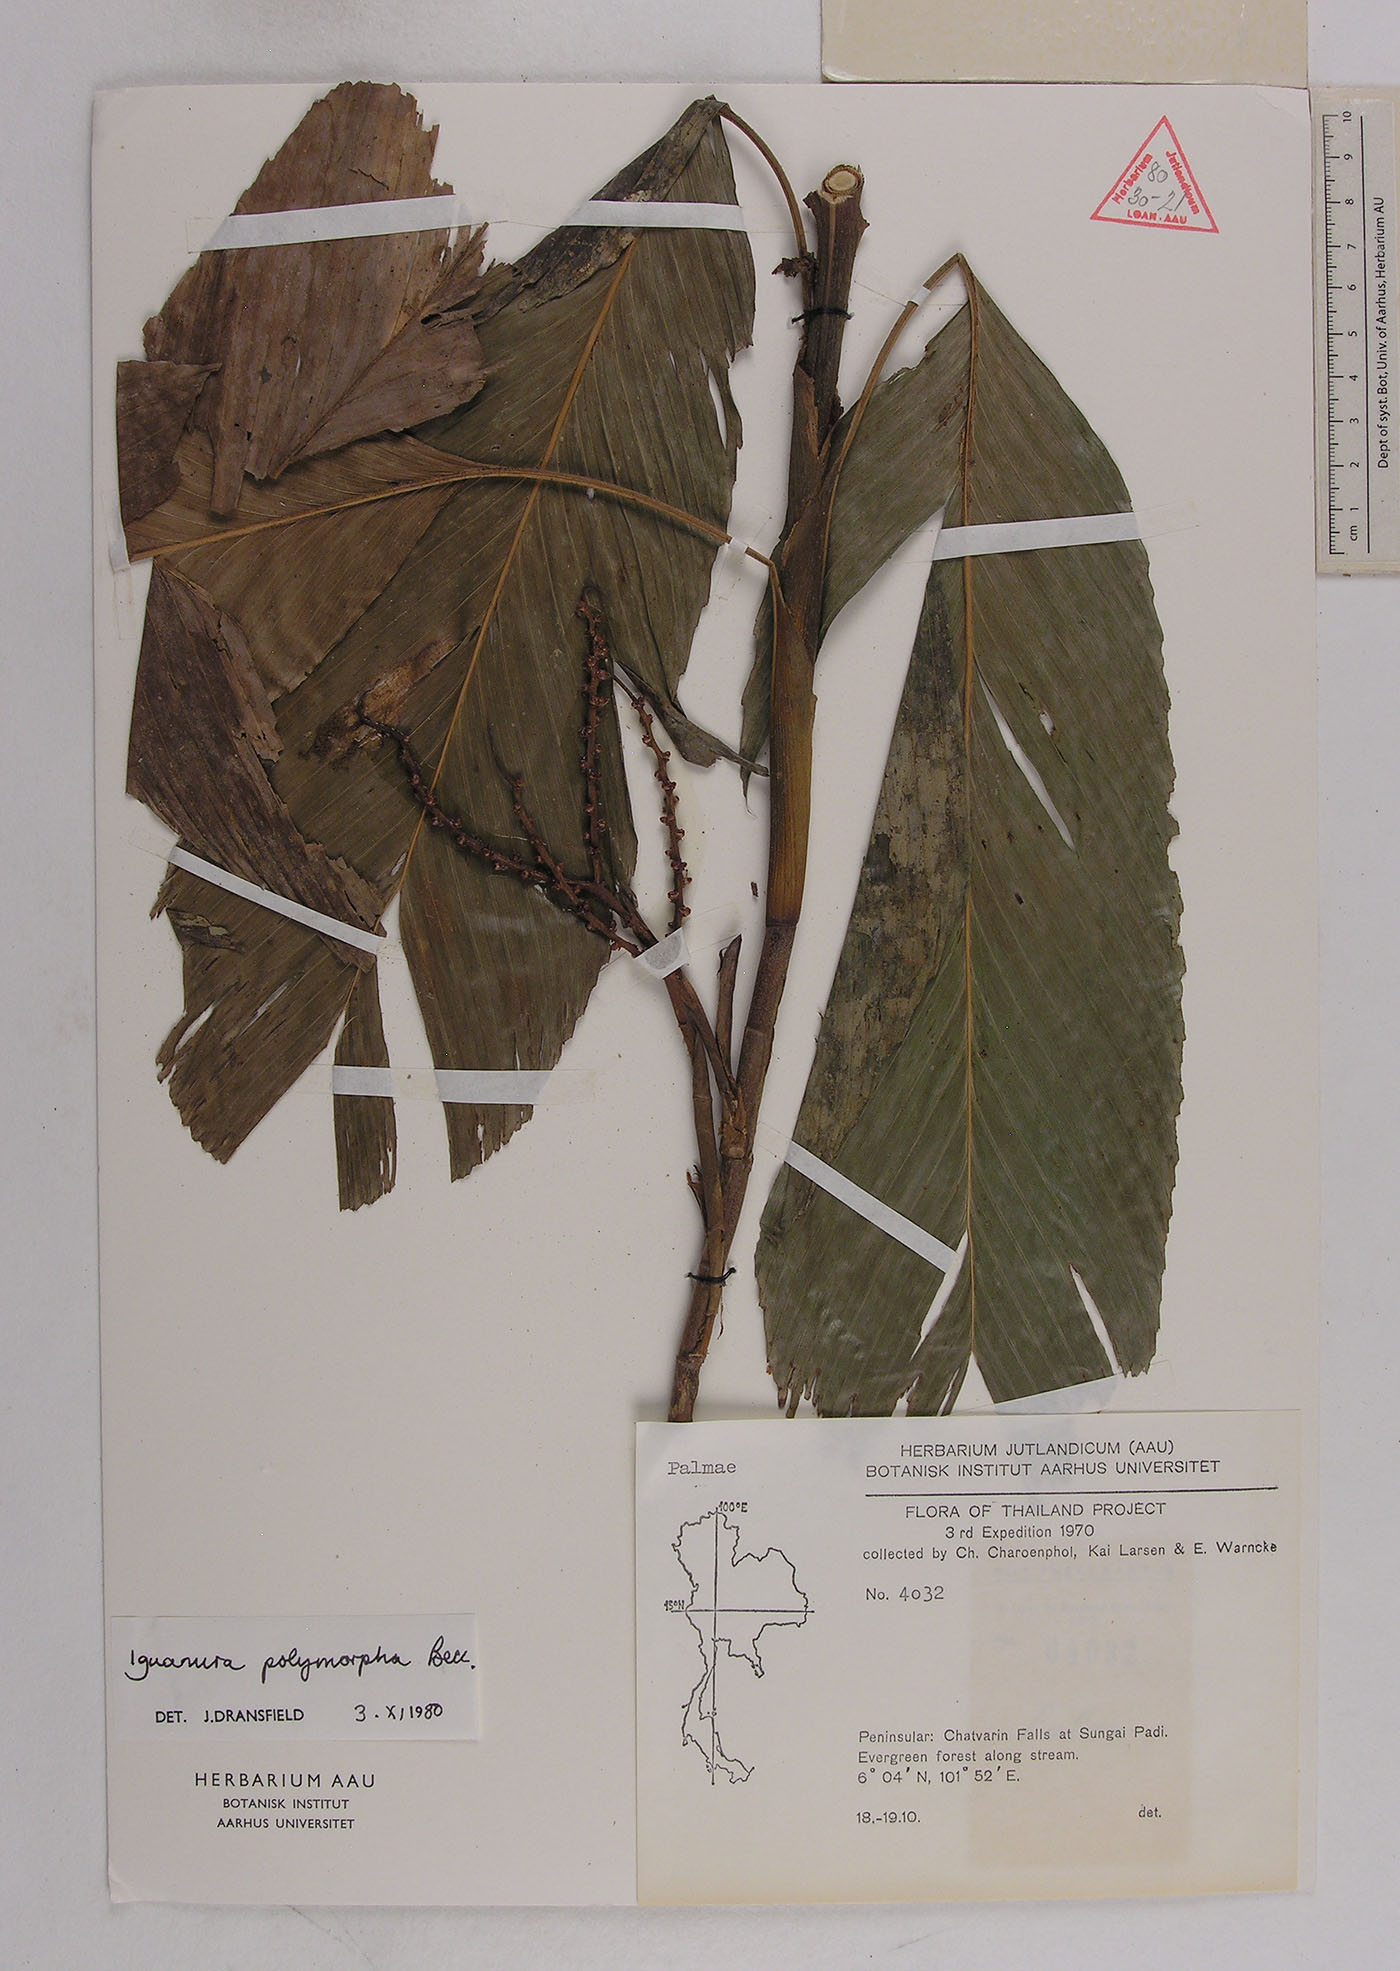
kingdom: Plantae
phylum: Tracheophyta
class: Liliopsida
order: Arecales
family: Arecaceae
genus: Iguanura
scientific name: Iguanura polymorpha
